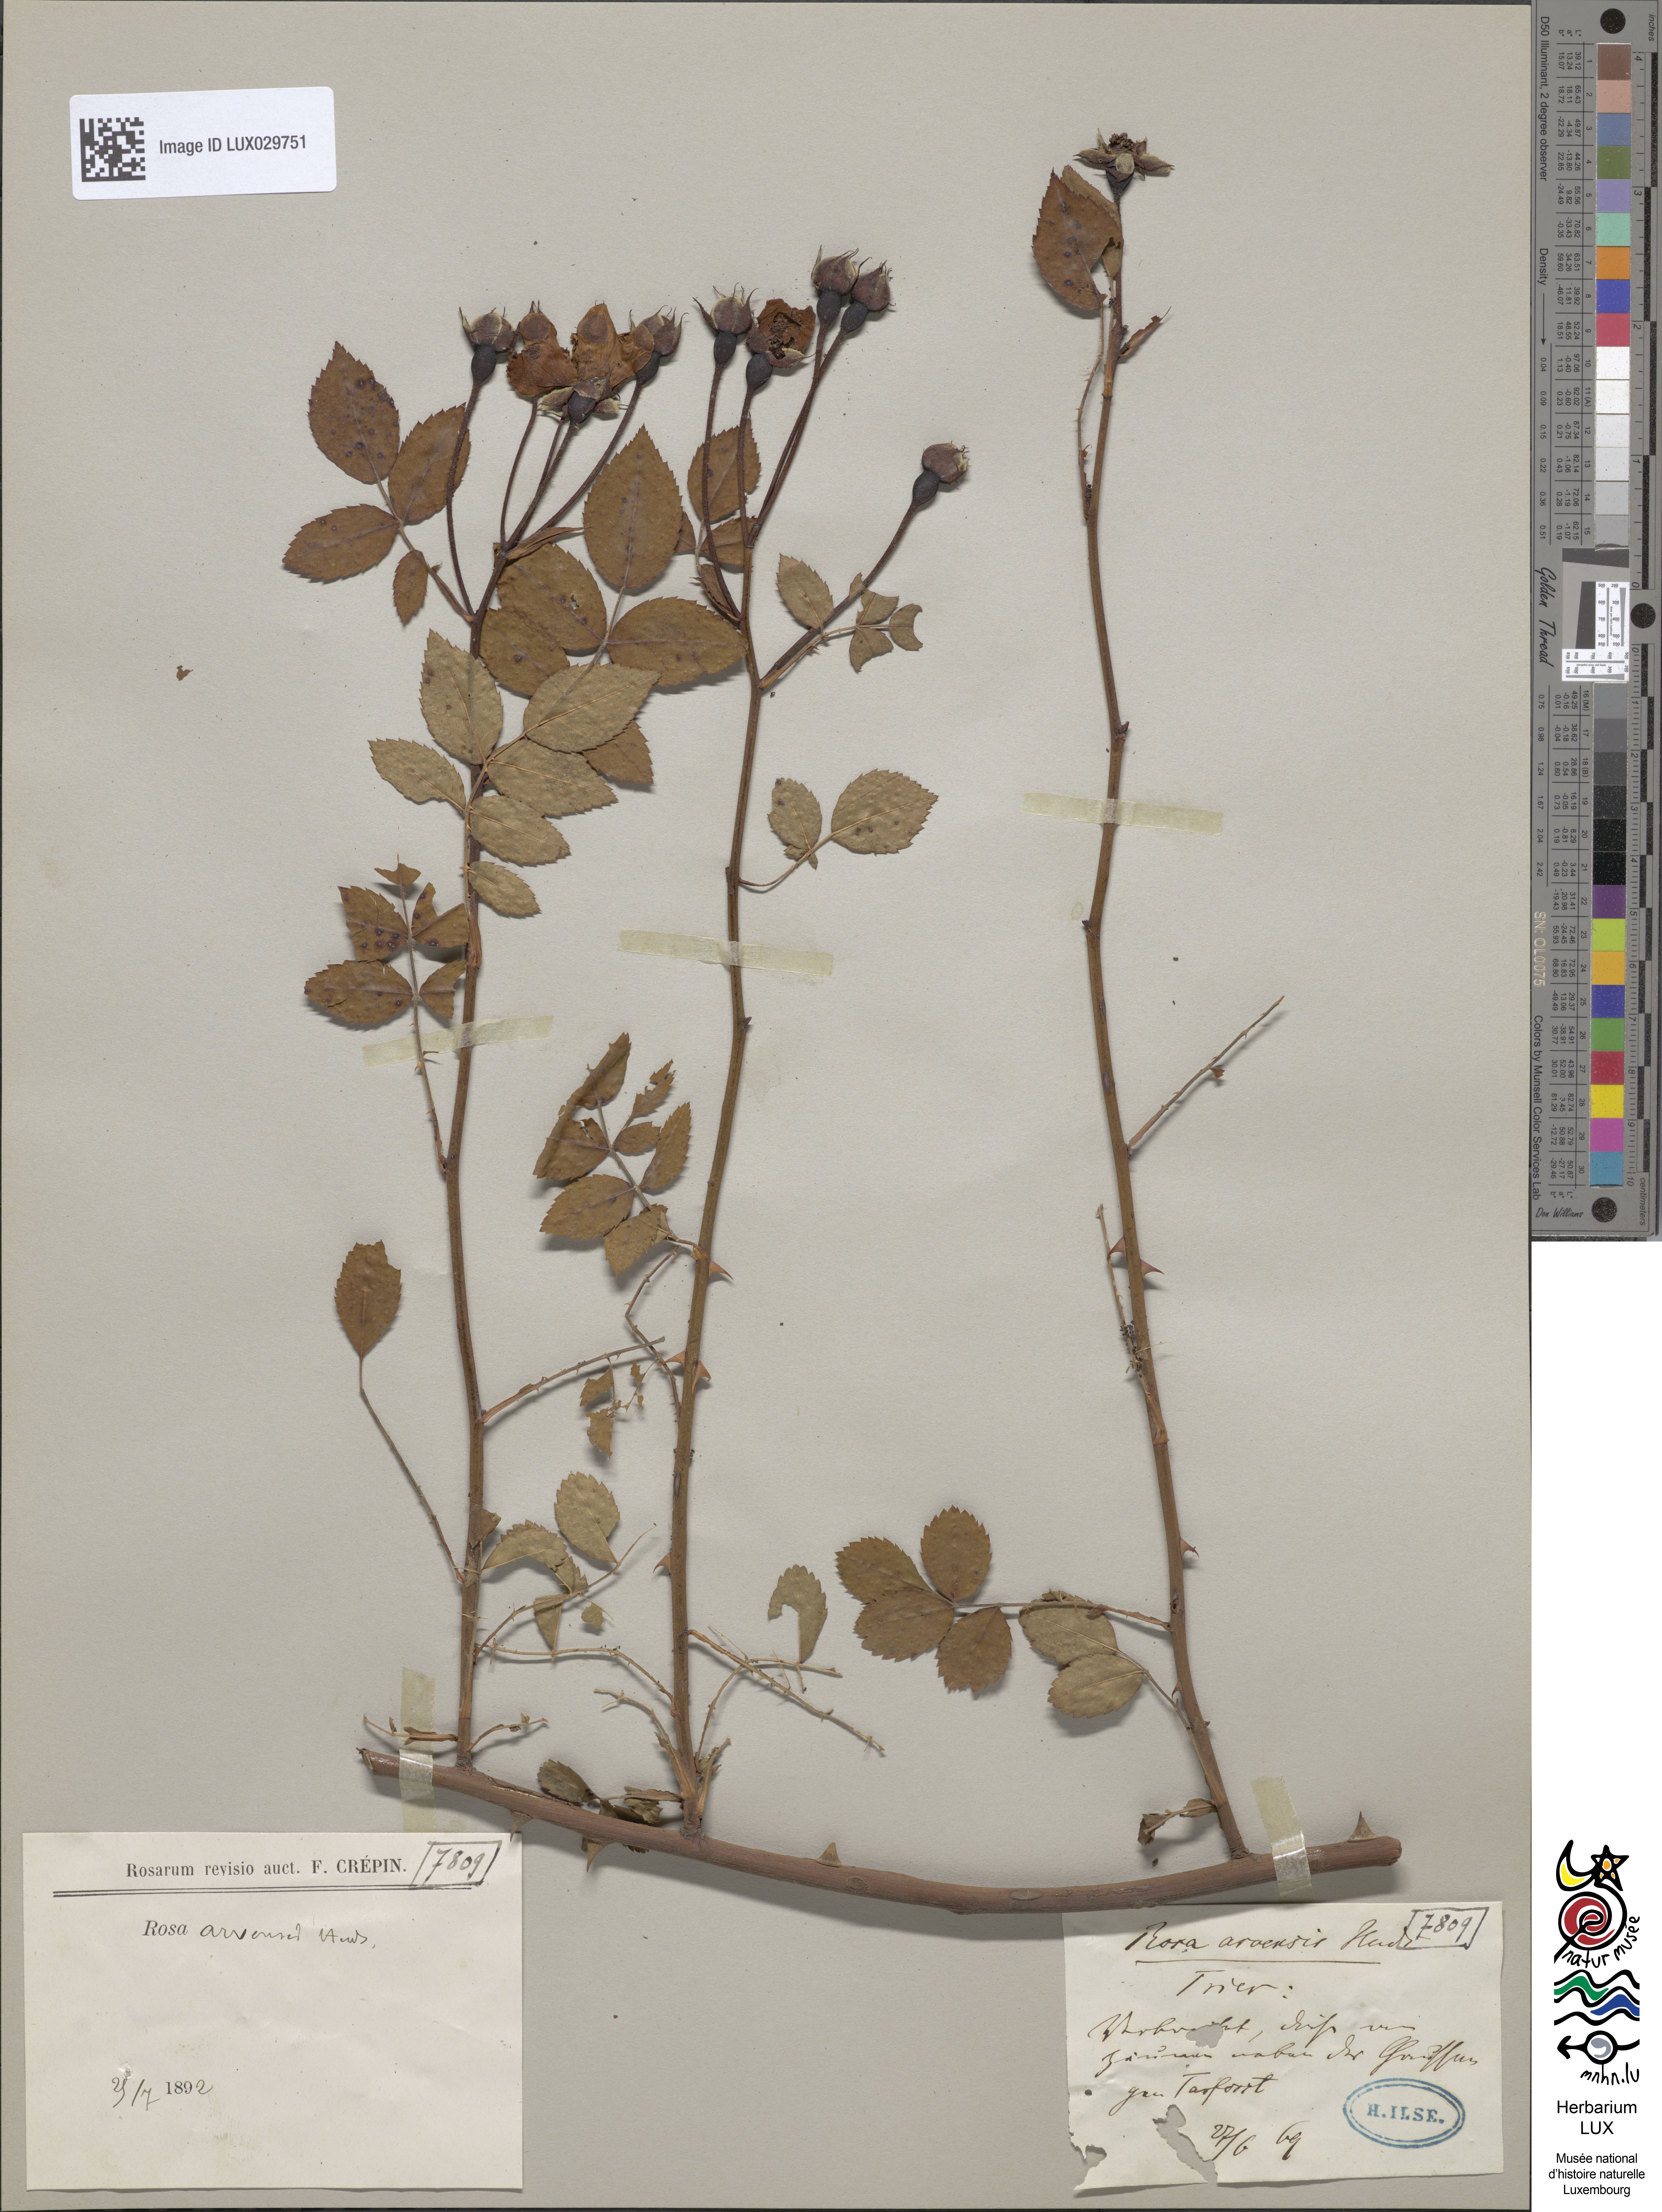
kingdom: Plantae
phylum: Tracheophyta
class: Magnoliopsida
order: Rosales
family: Rosaceae
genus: Rosa
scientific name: Rosa arvensis
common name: Field rose
